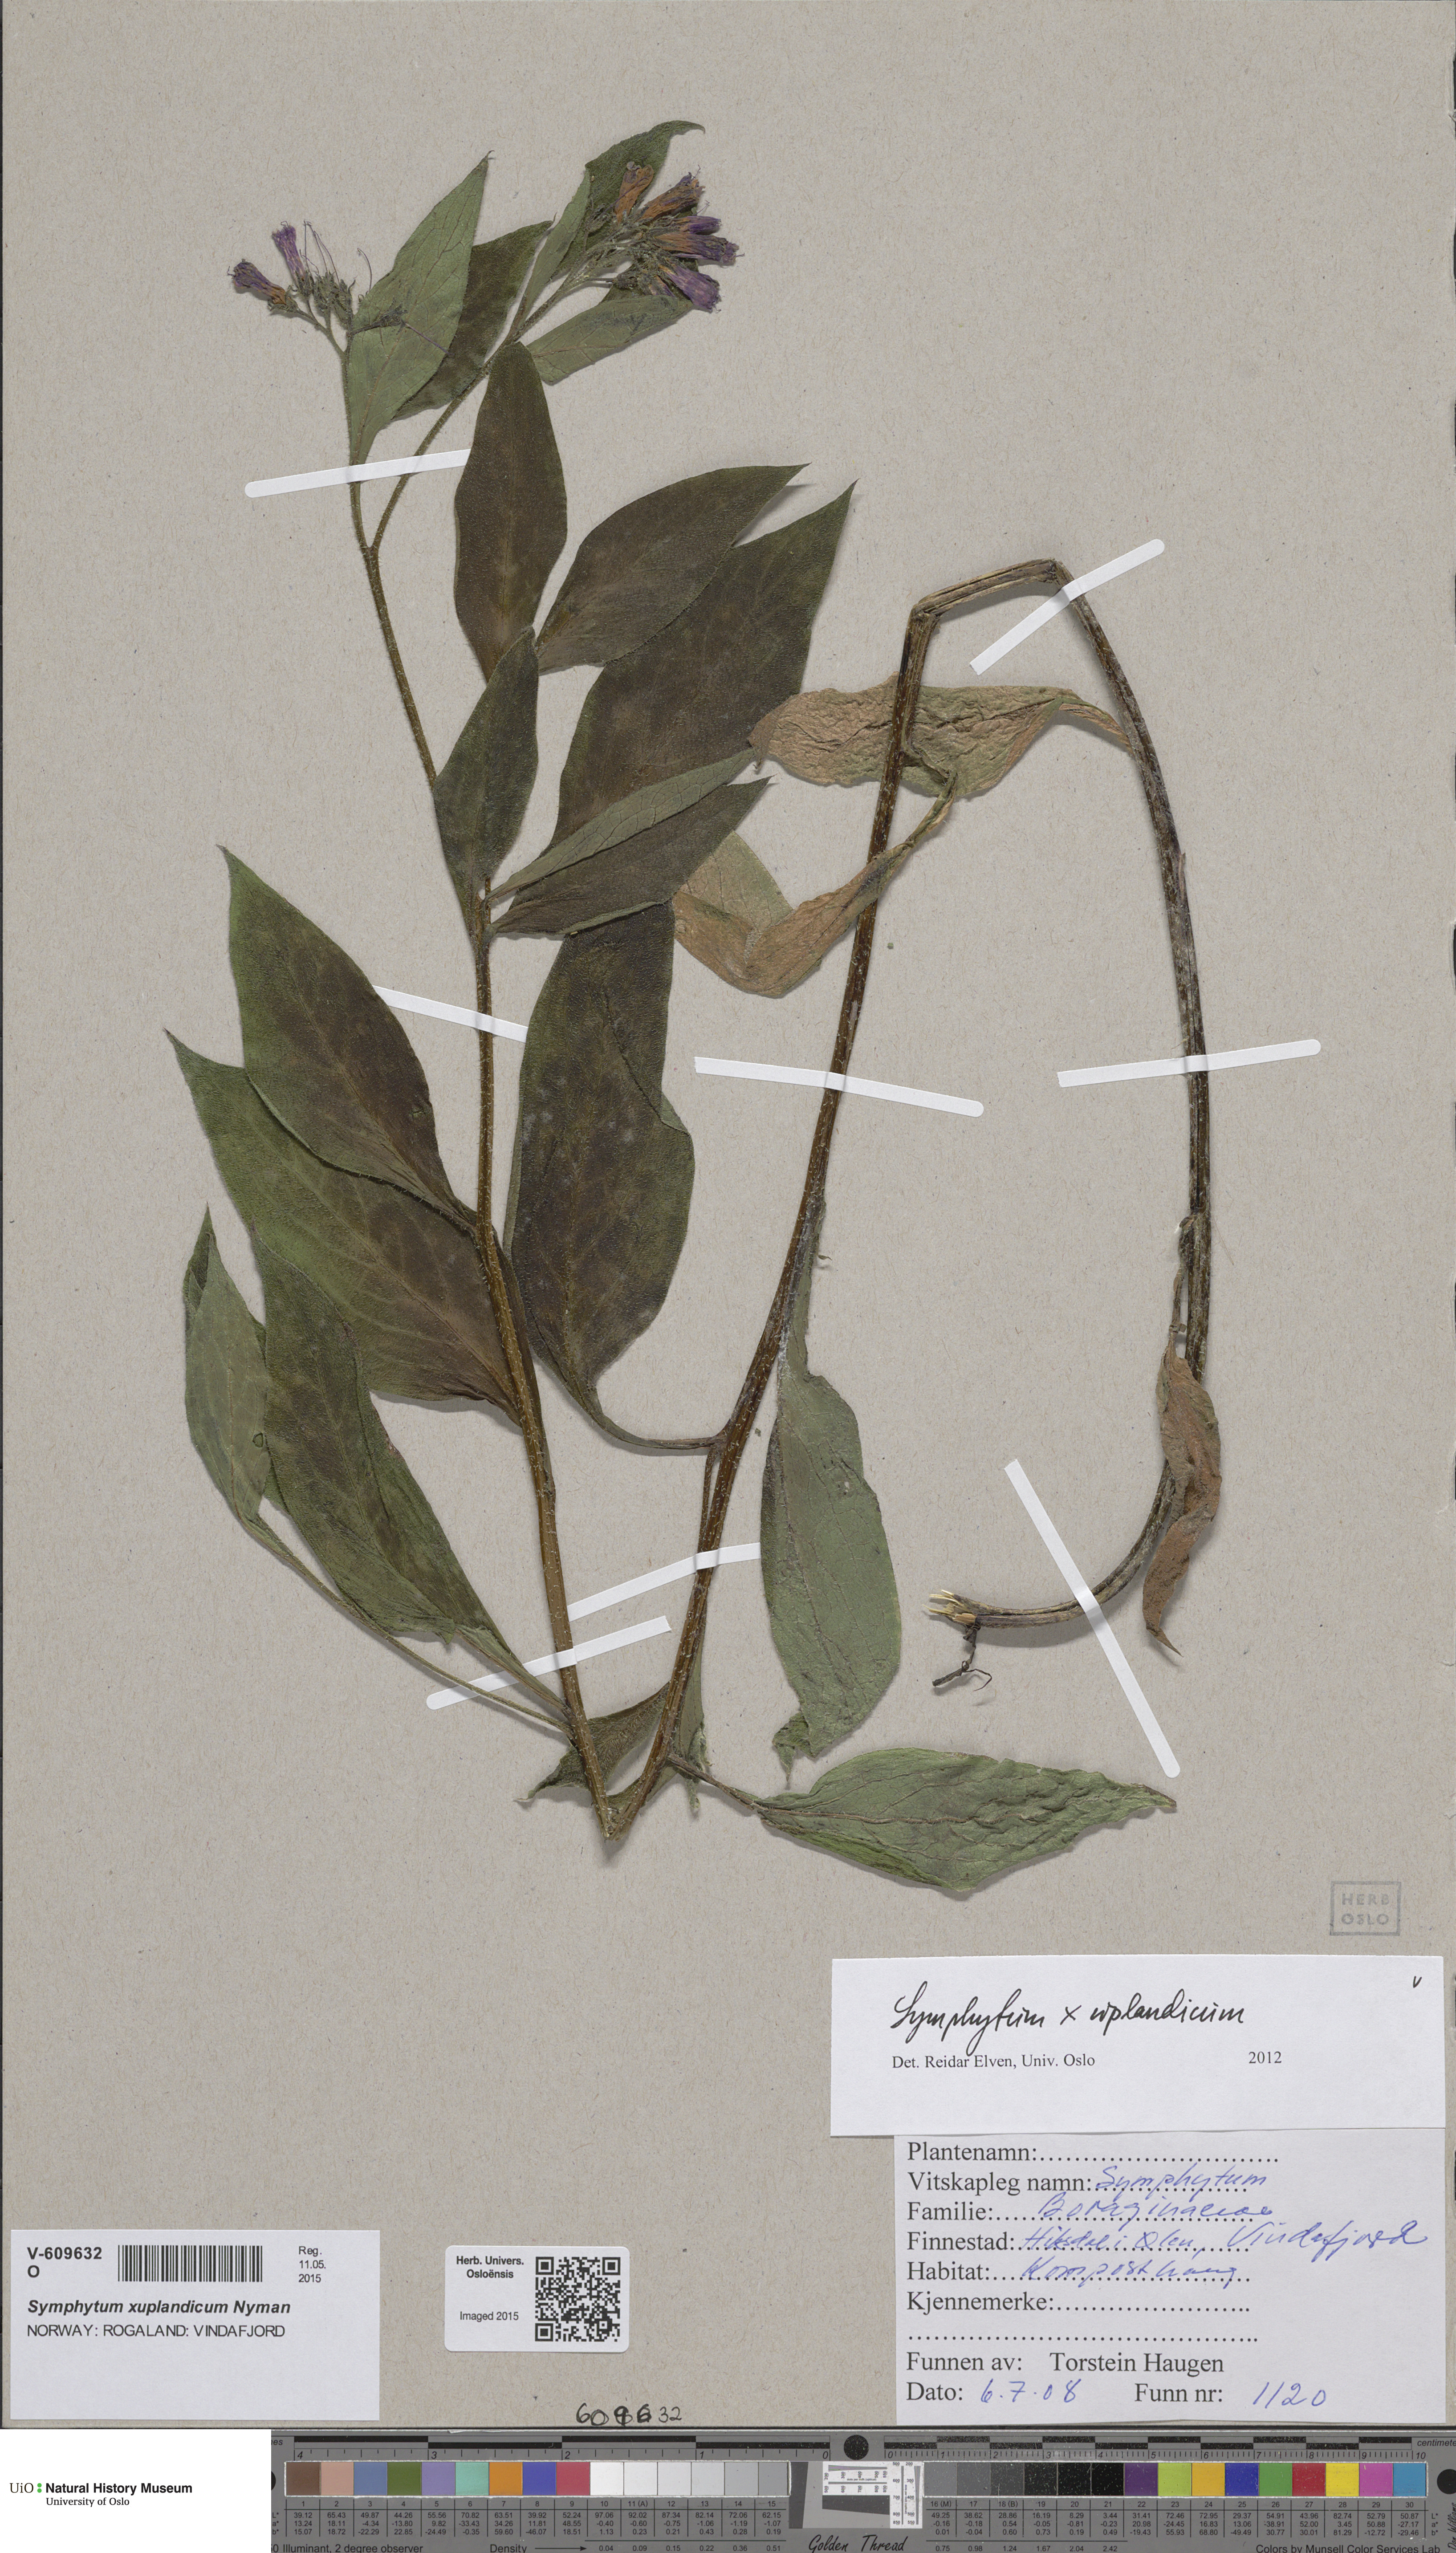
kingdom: Plantae
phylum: Tracheophyta
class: Magnoliopsida
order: Boraginales
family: Boraginaceae
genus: Symphytum
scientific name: Symphytum uplandicum
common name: Russian comfrey
